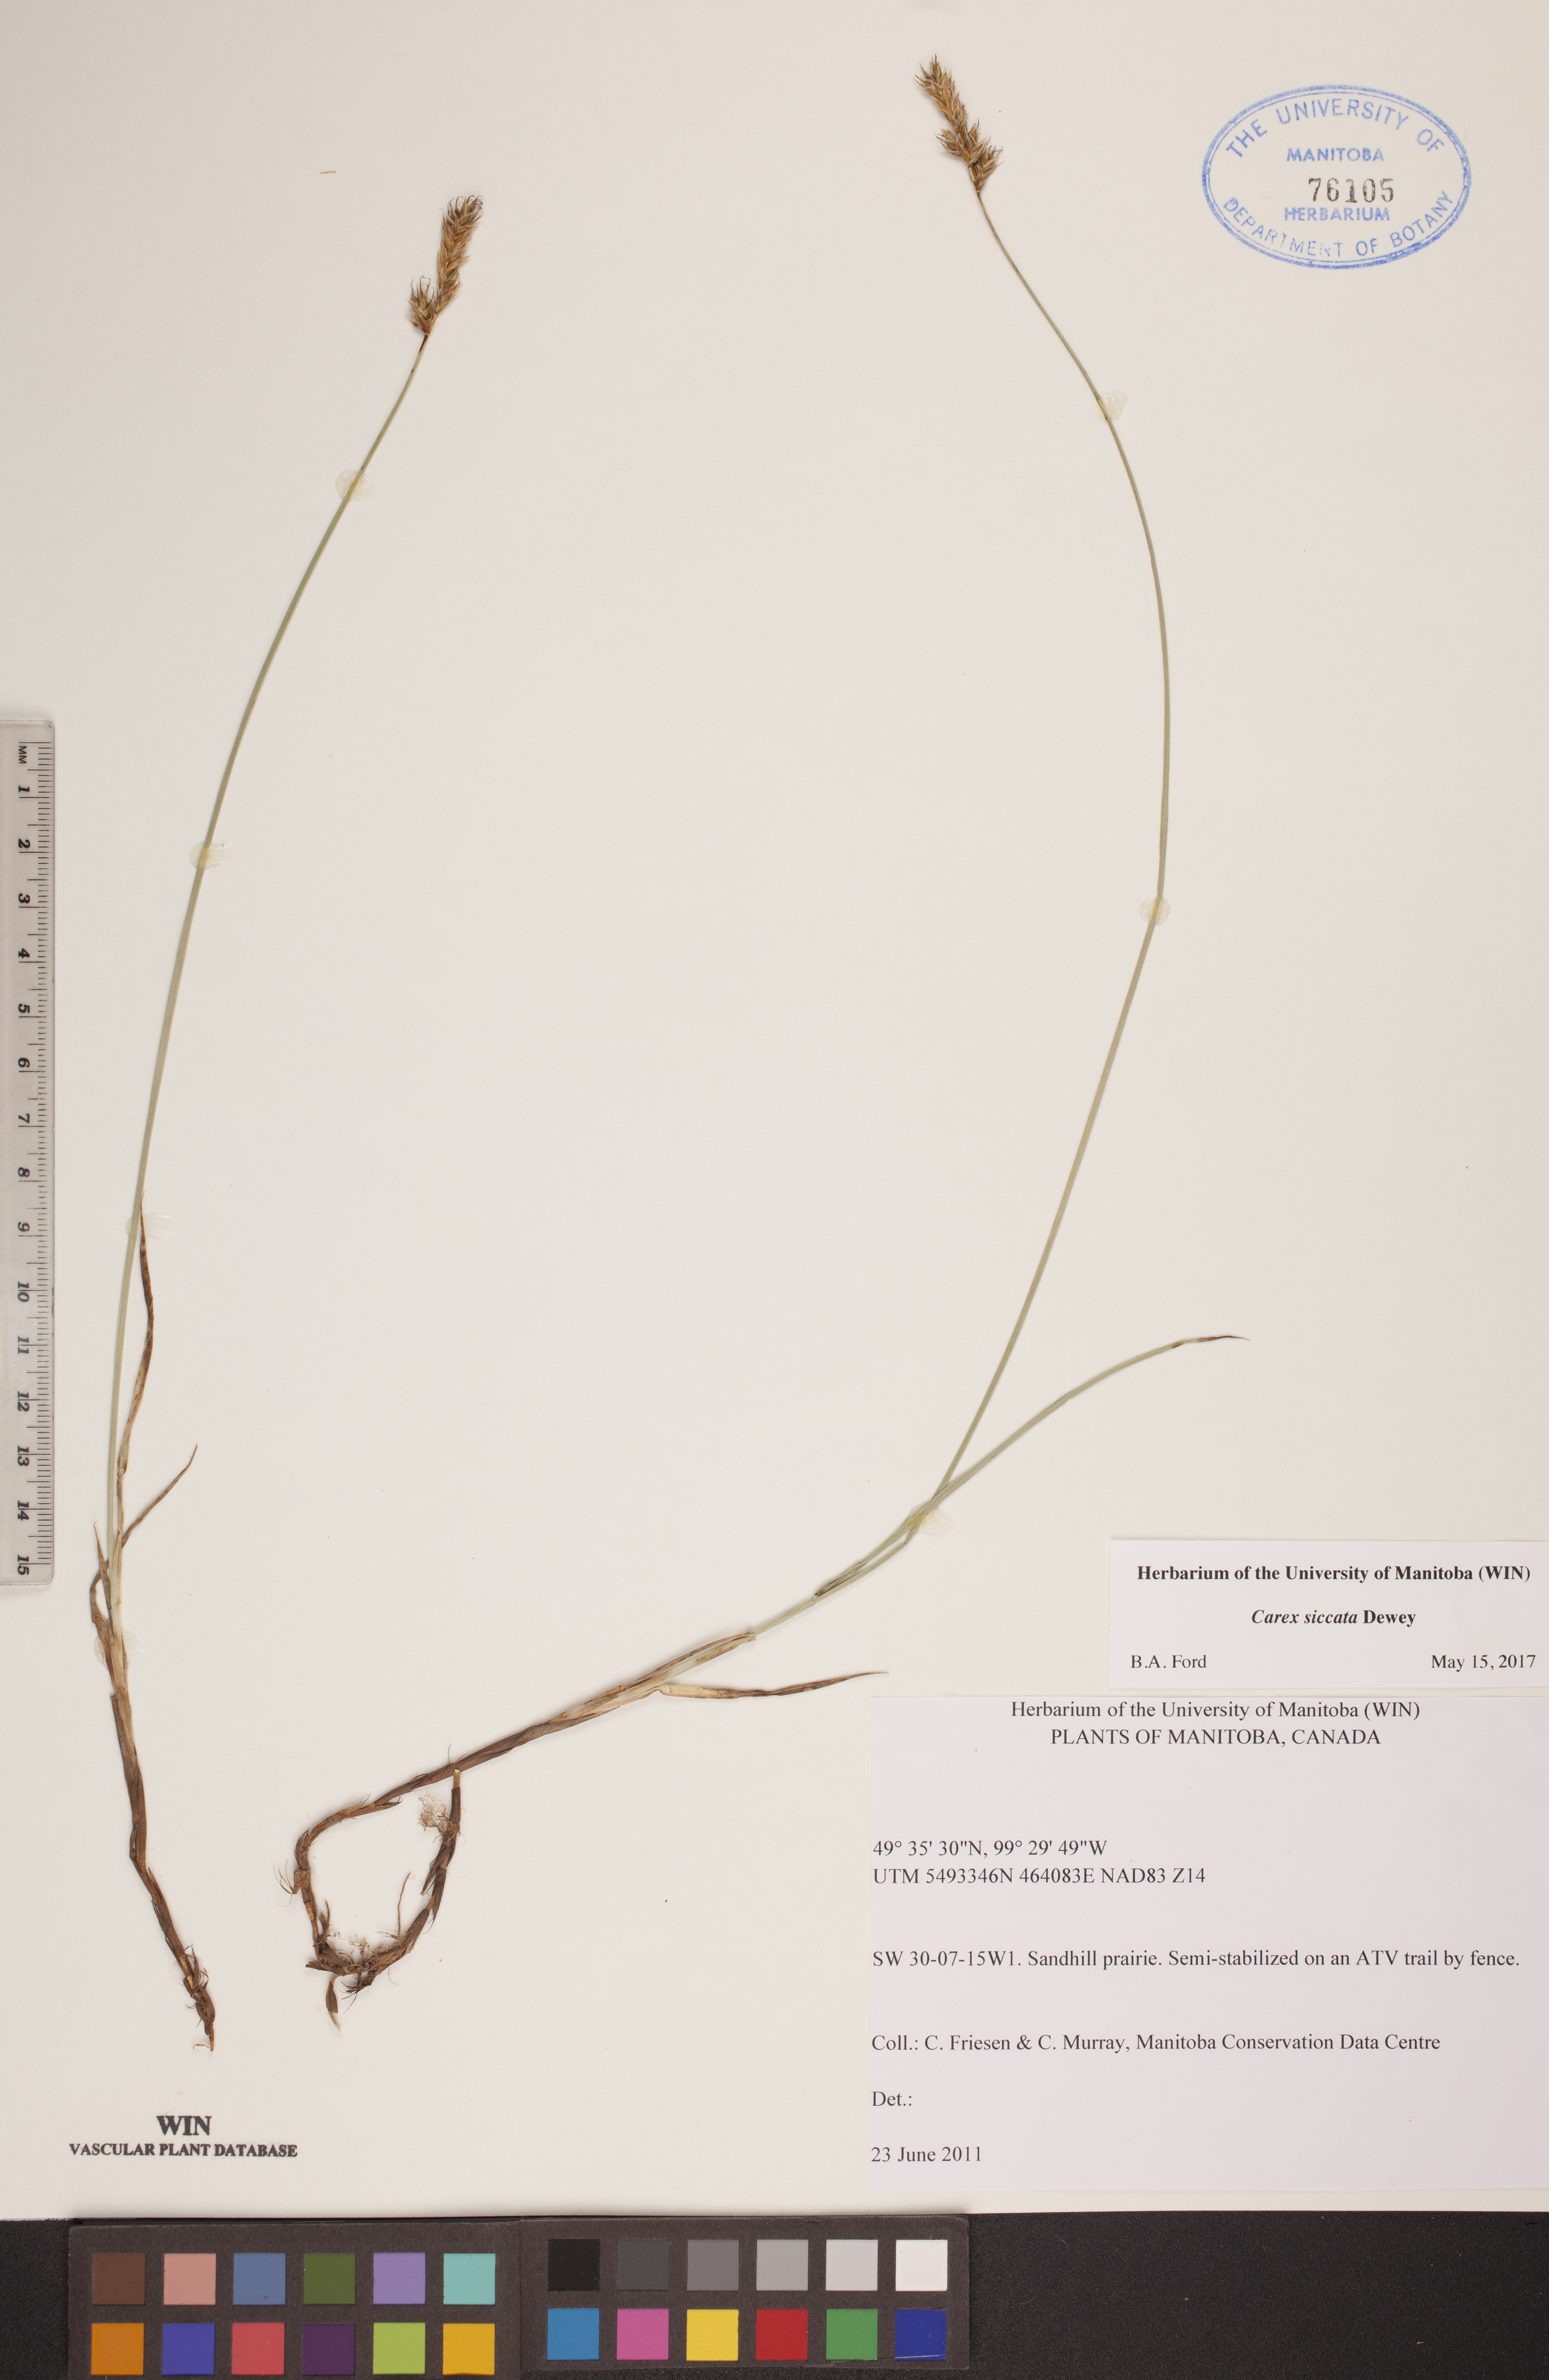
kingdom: Plantae
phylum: Tracheophyta
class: Liliopsida
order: Poales
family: Cyperaceae
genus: Carex
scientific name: Carex siccata
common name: Dry sedge
